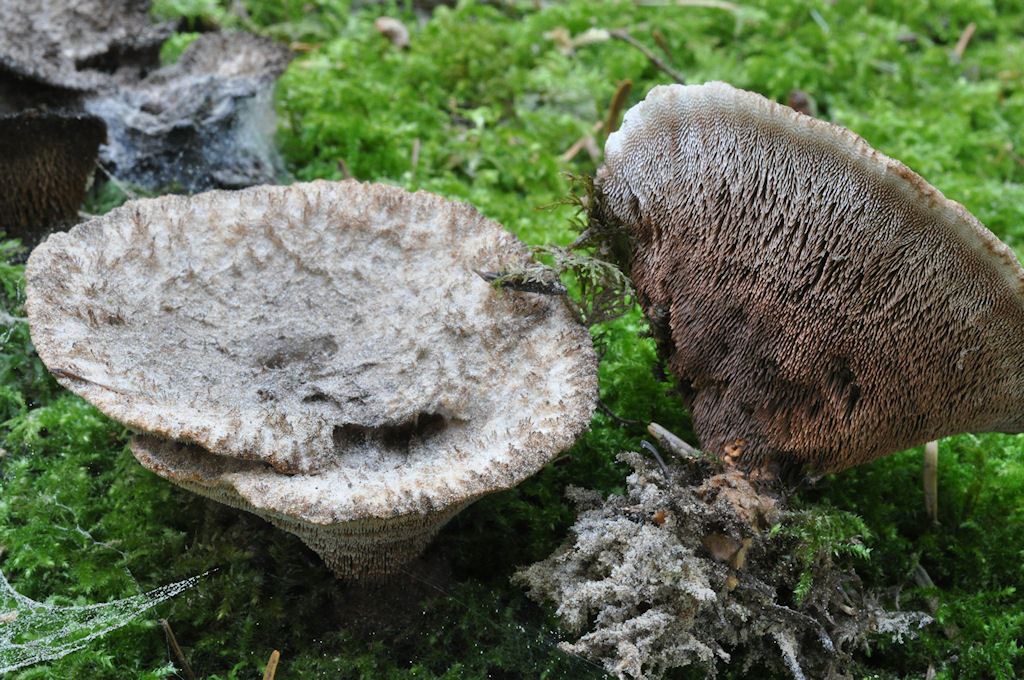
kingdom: Fungi
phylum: Basidiomycota
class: Agaricomycetes
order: Thelephorales
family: Bankeraceae
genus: Hydnellum
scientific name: Hydnellum
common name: korkpigsvamp
